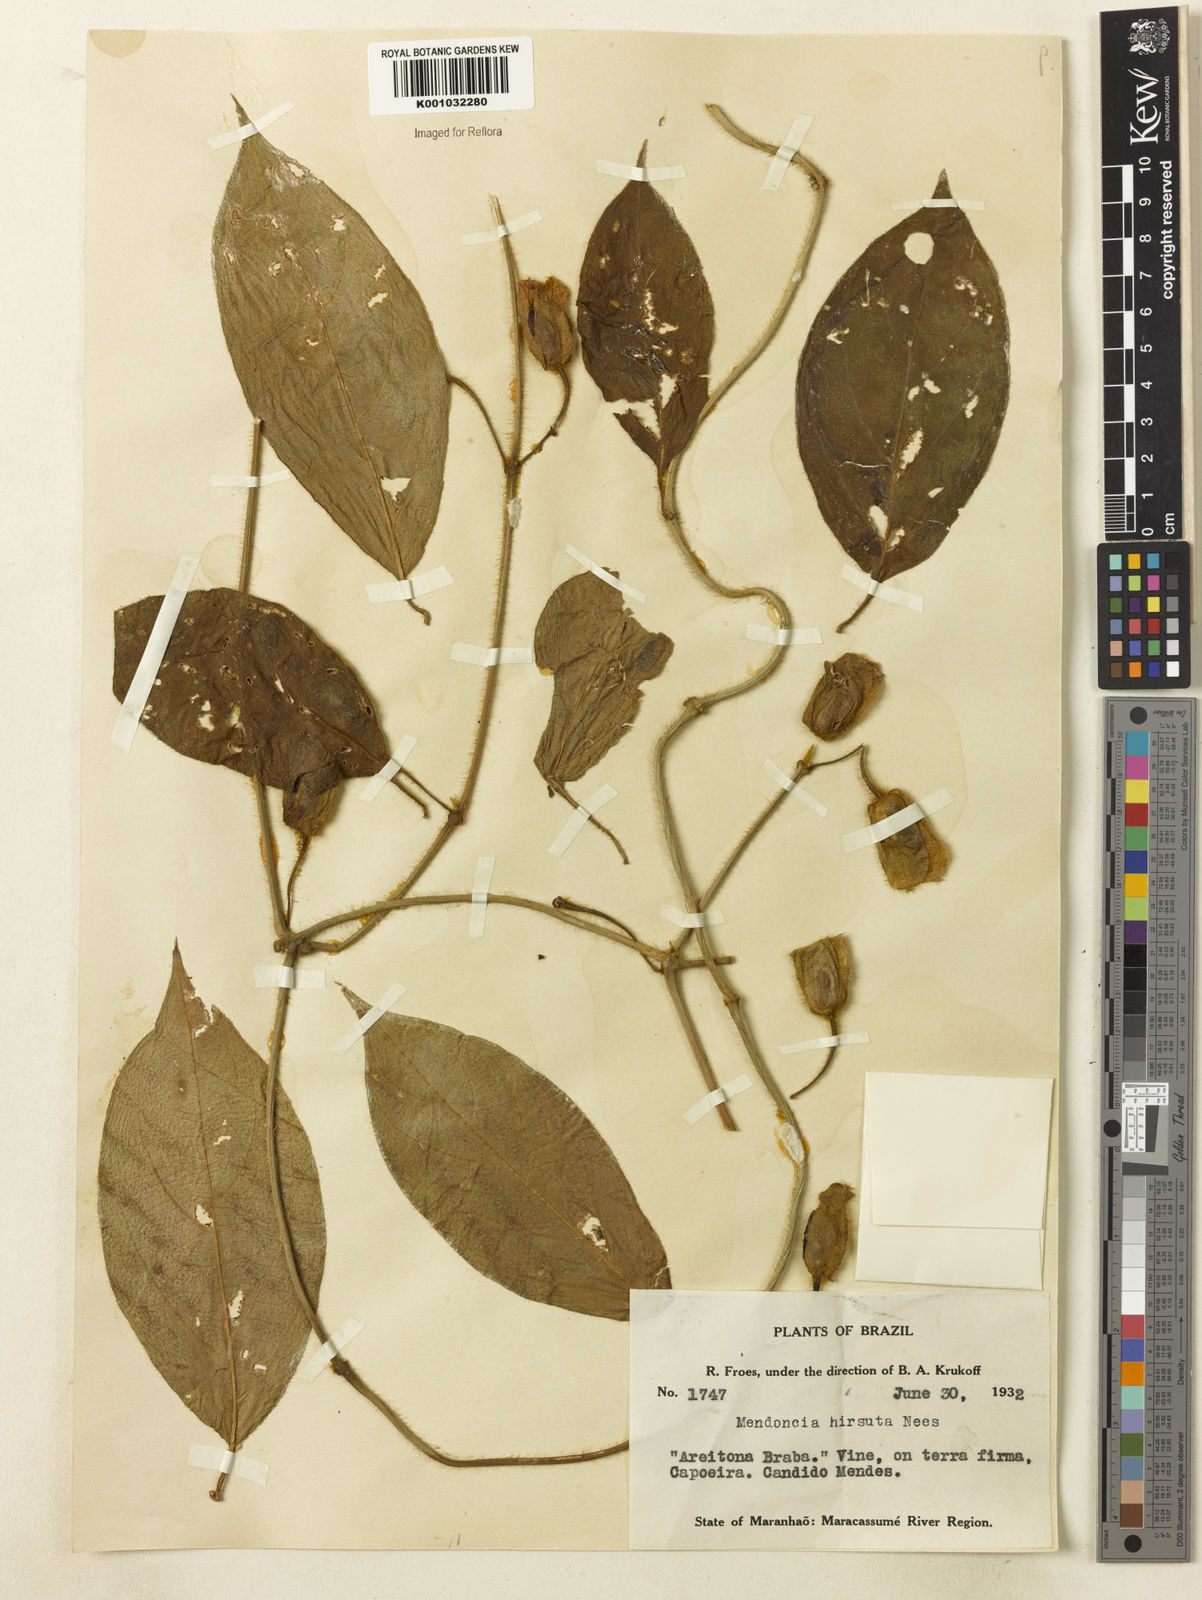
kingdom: Plantae
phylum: Tracheophyta
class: Magnoliopsida
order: Lamiales
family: Acanthaceae
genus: Mendoncia
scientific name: Mendoncia
